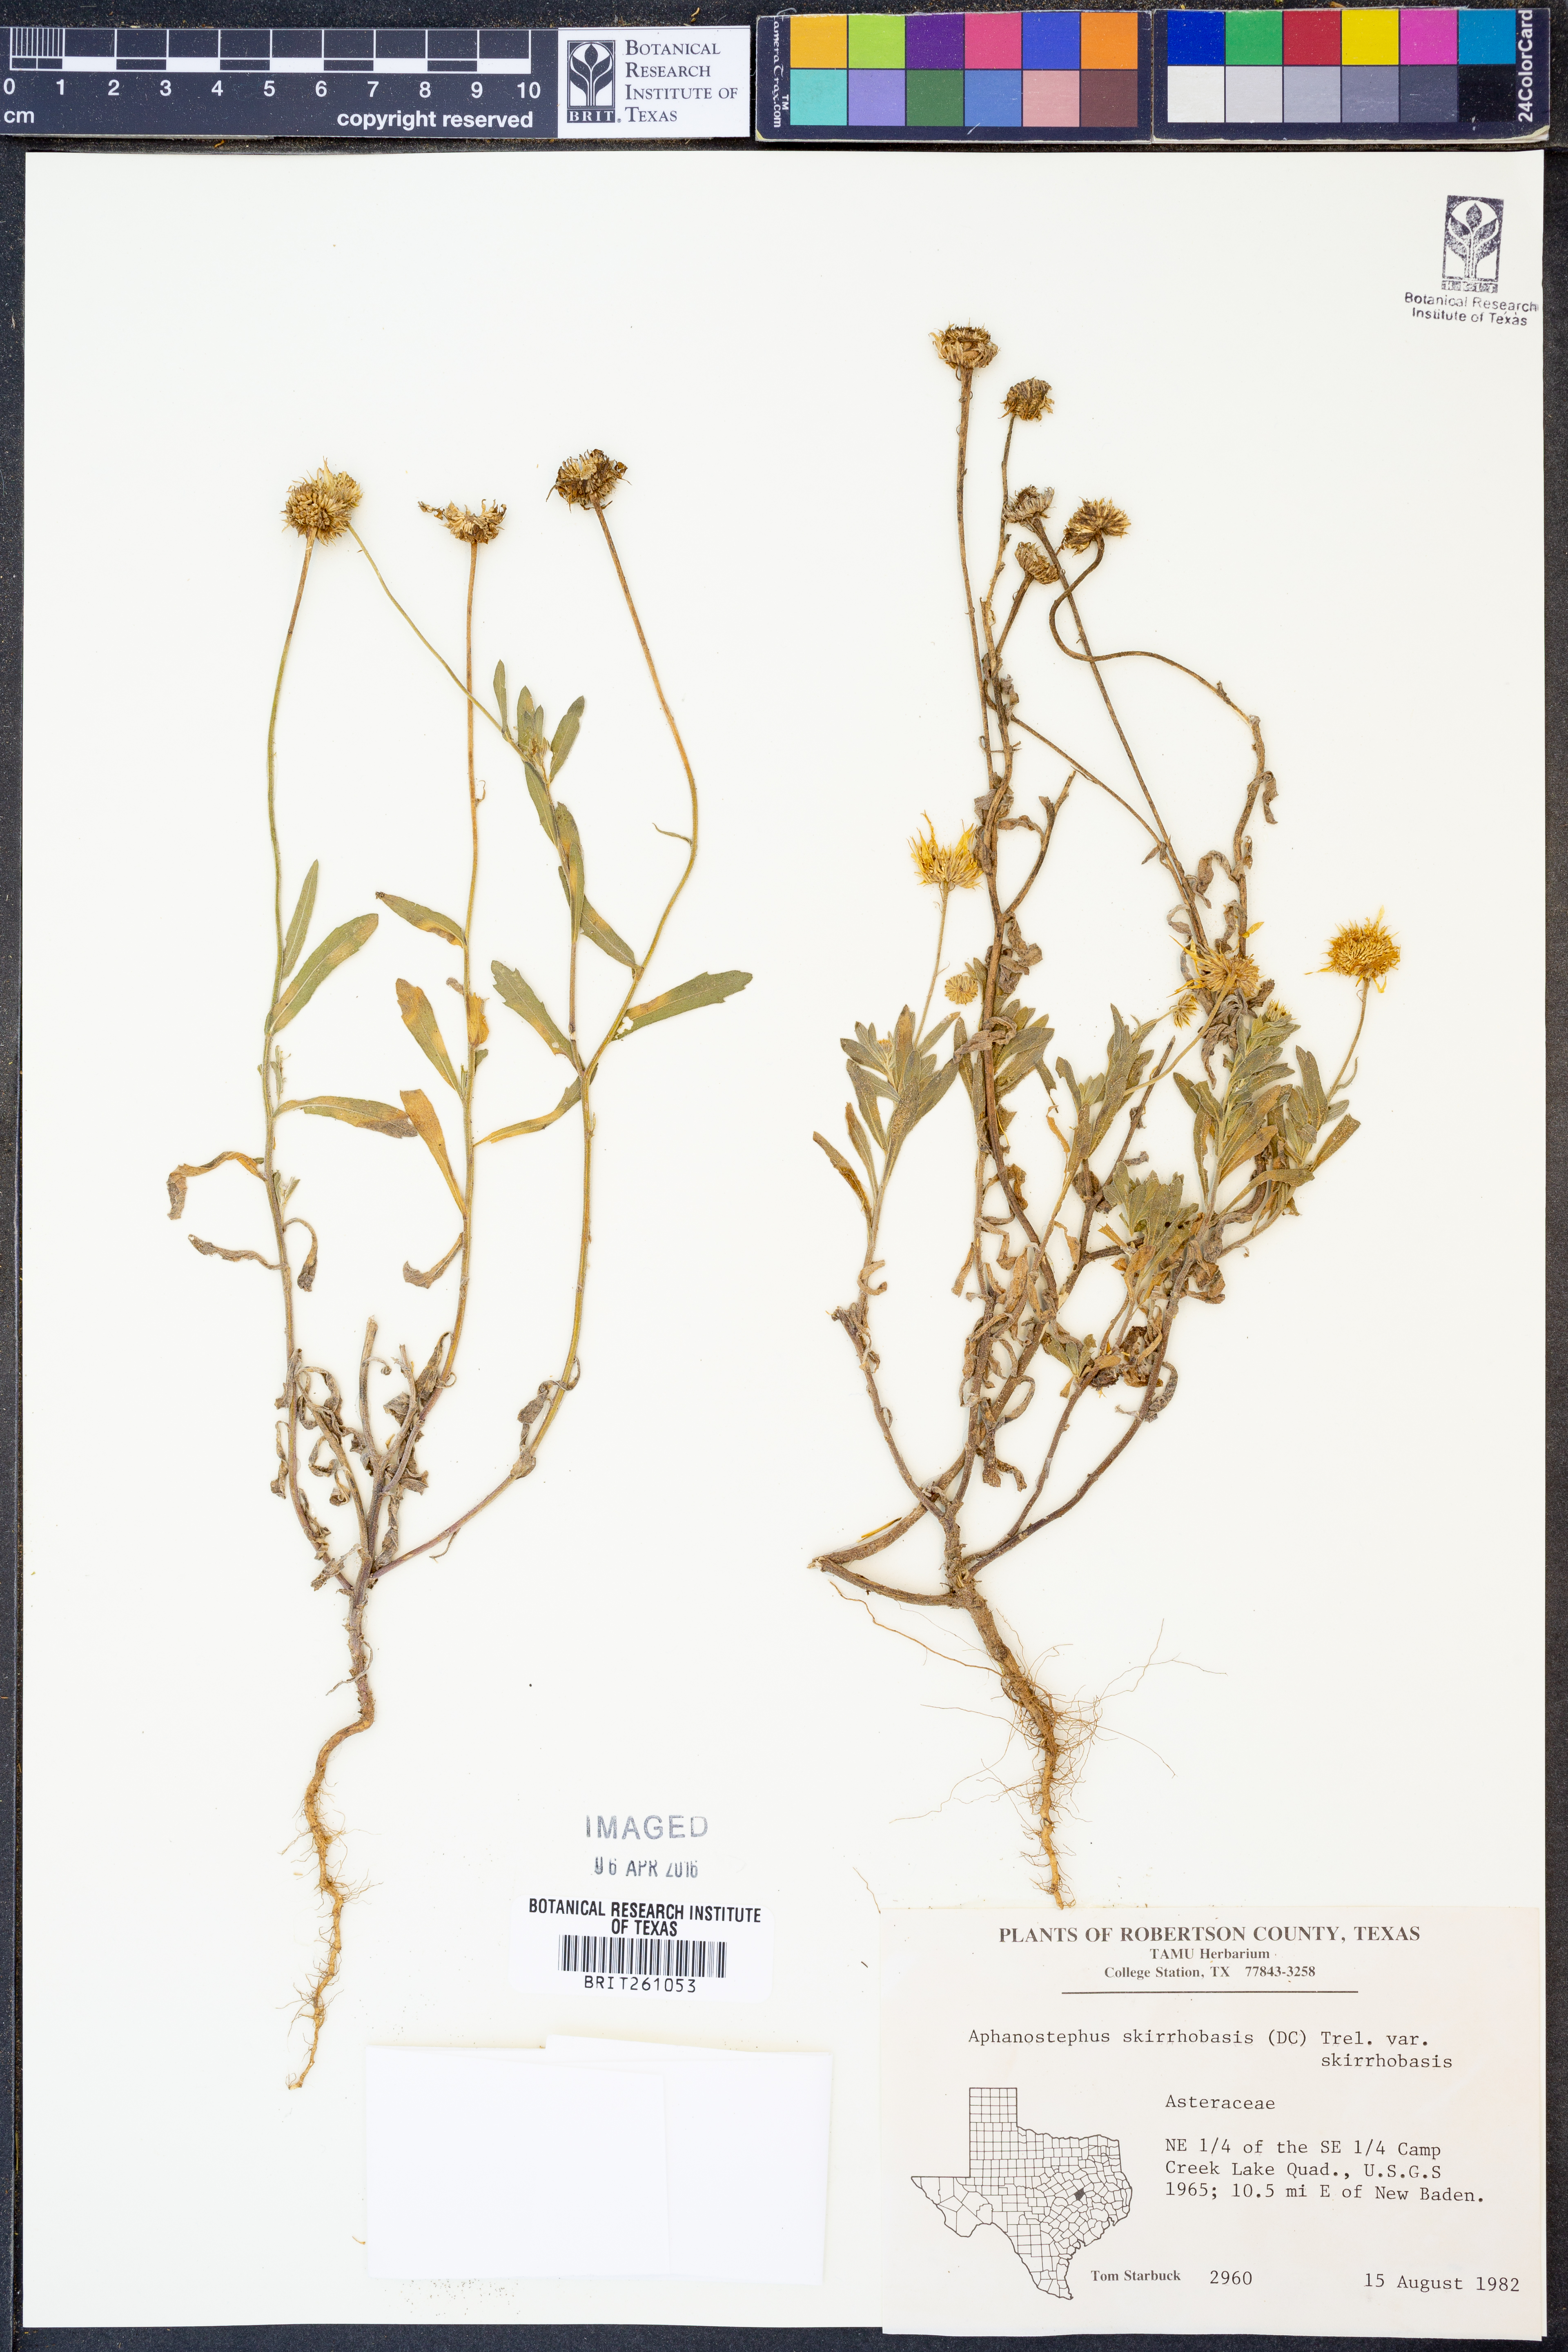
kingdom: Plantae
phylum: Tracheophyta
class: Magnoliopsida
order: Asterales
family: Asteraceae
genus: Aphanostephus
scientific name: Aphanostephus skirrhobasis
